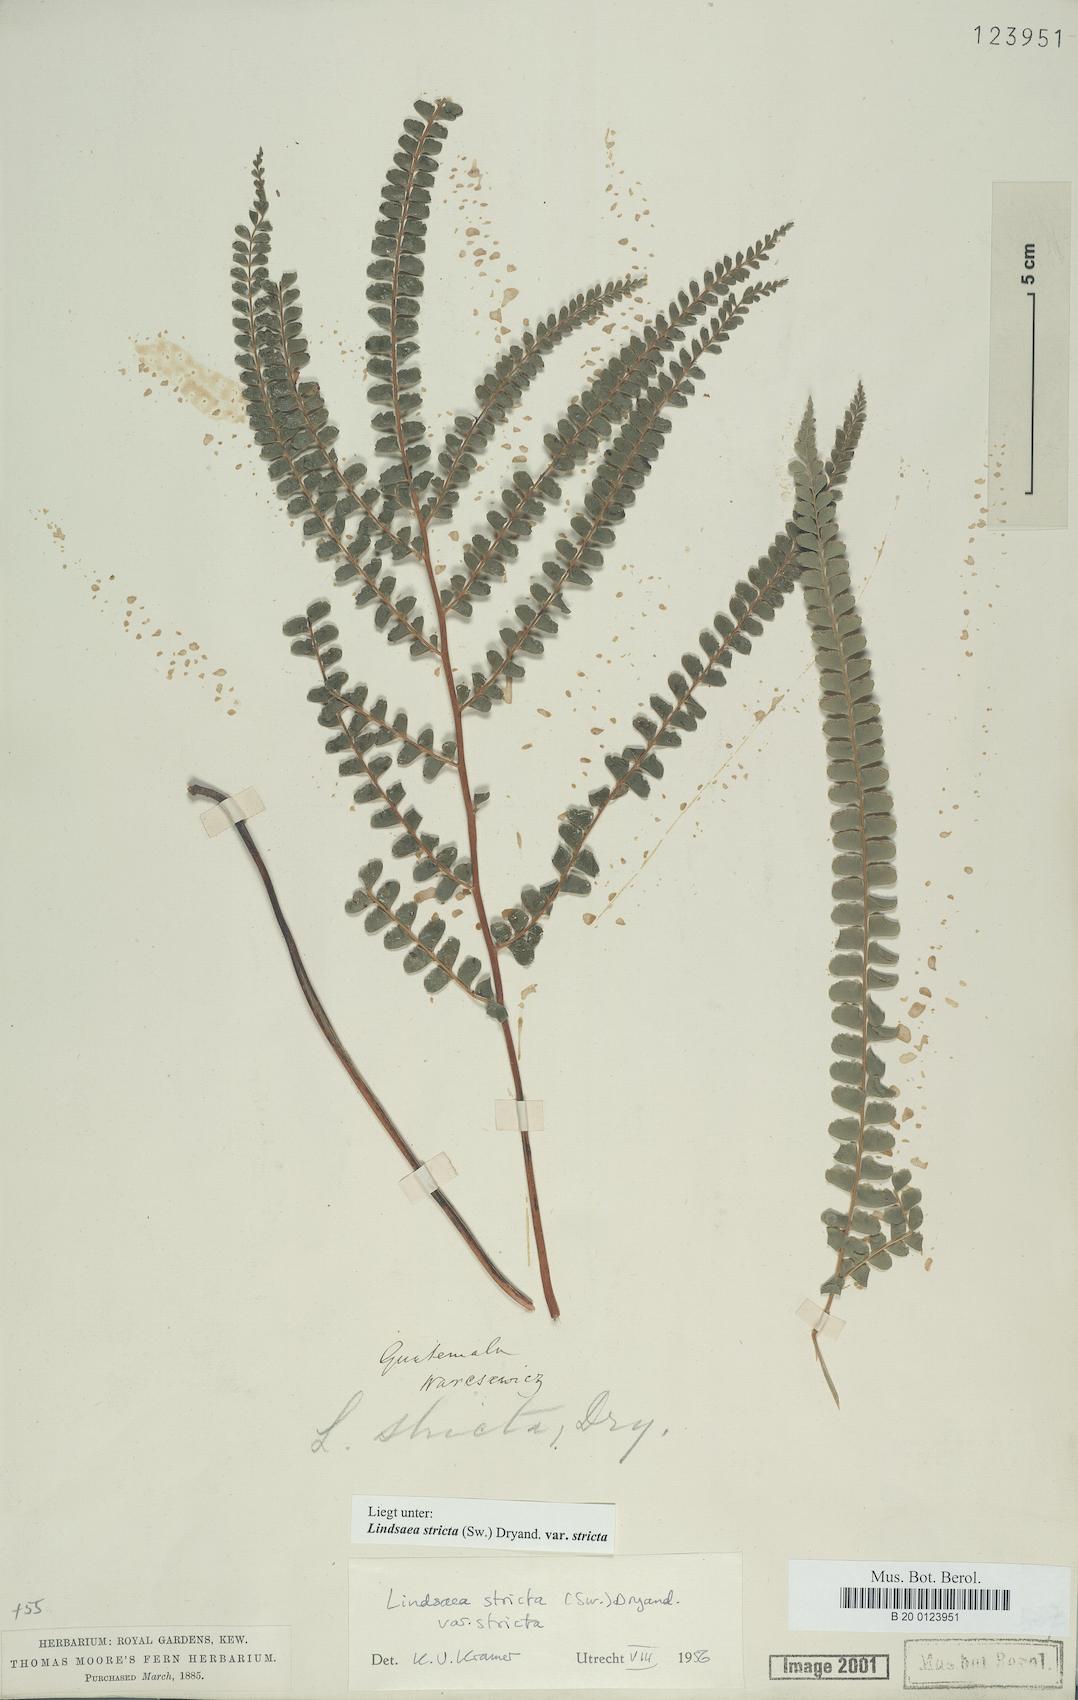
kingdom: Plantae
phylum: Tracheophyta
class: Polypodiopsida
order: Polypodiales
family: Lindsaeaceae
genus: Lindsaea
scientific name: Lindsaea stricta
